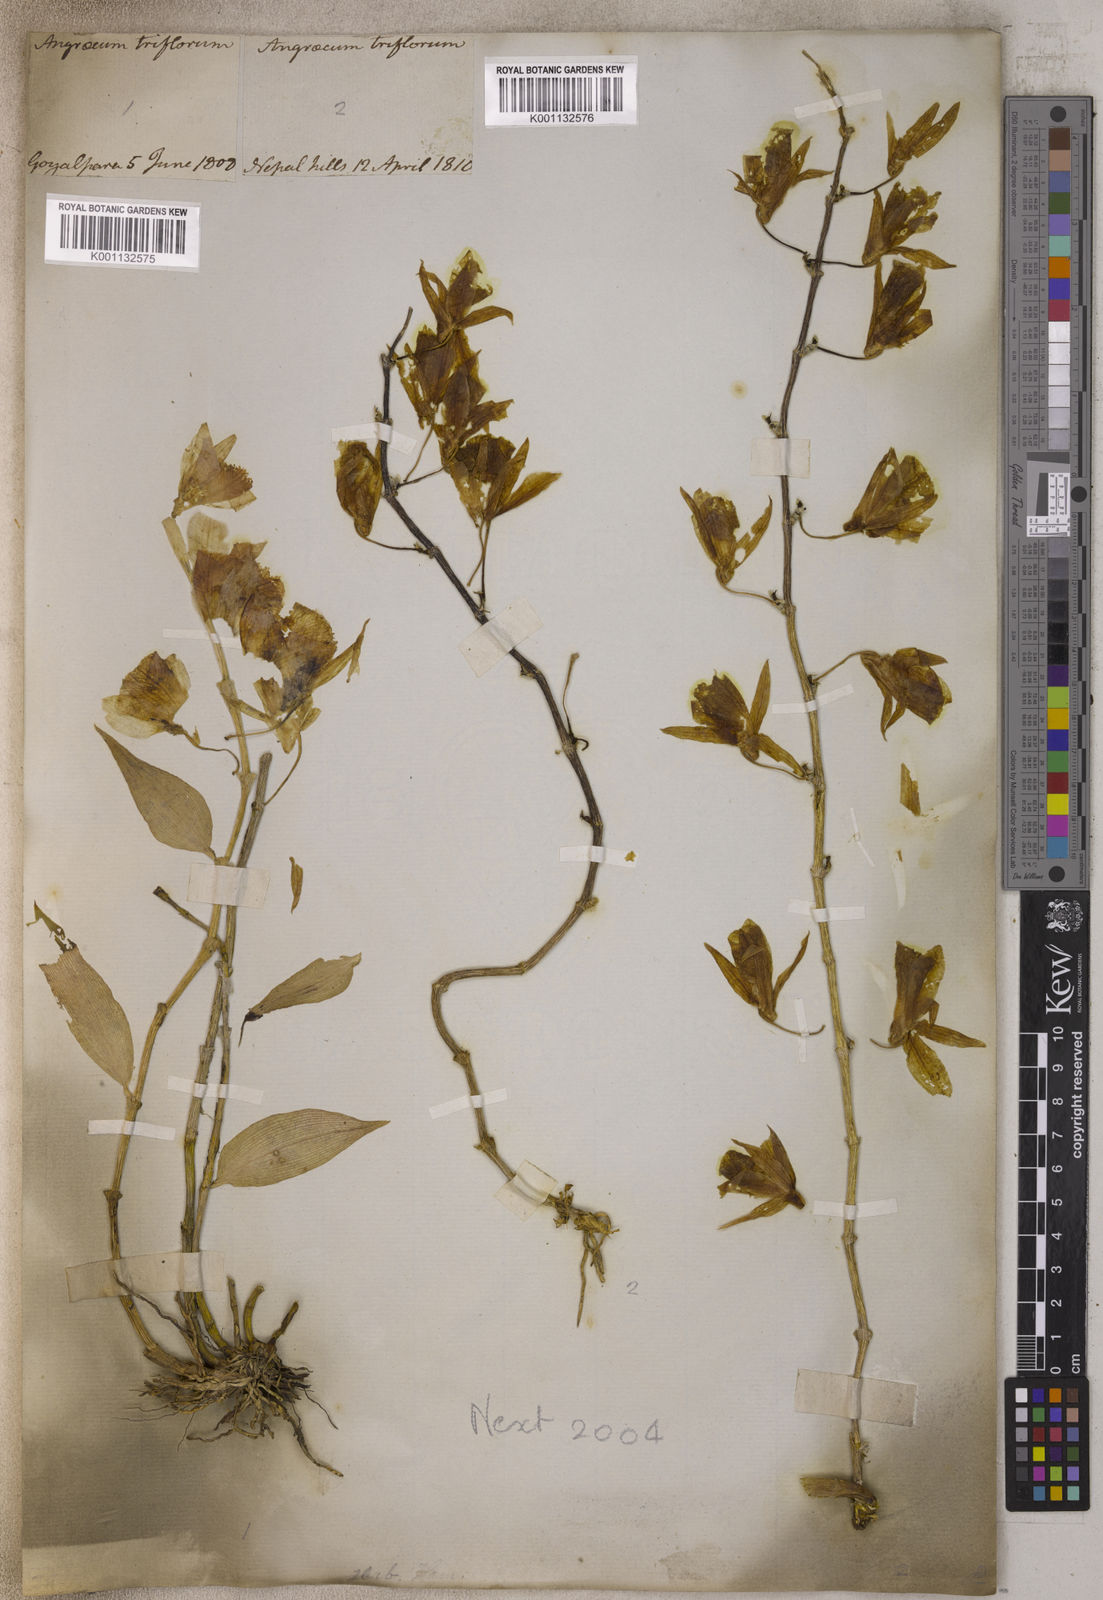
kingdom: Plantae
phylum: Tracheophyta
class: Liliopsida
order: Asparagales
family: Orchidaceae
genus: Dendrobium
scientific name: Dendrobium
